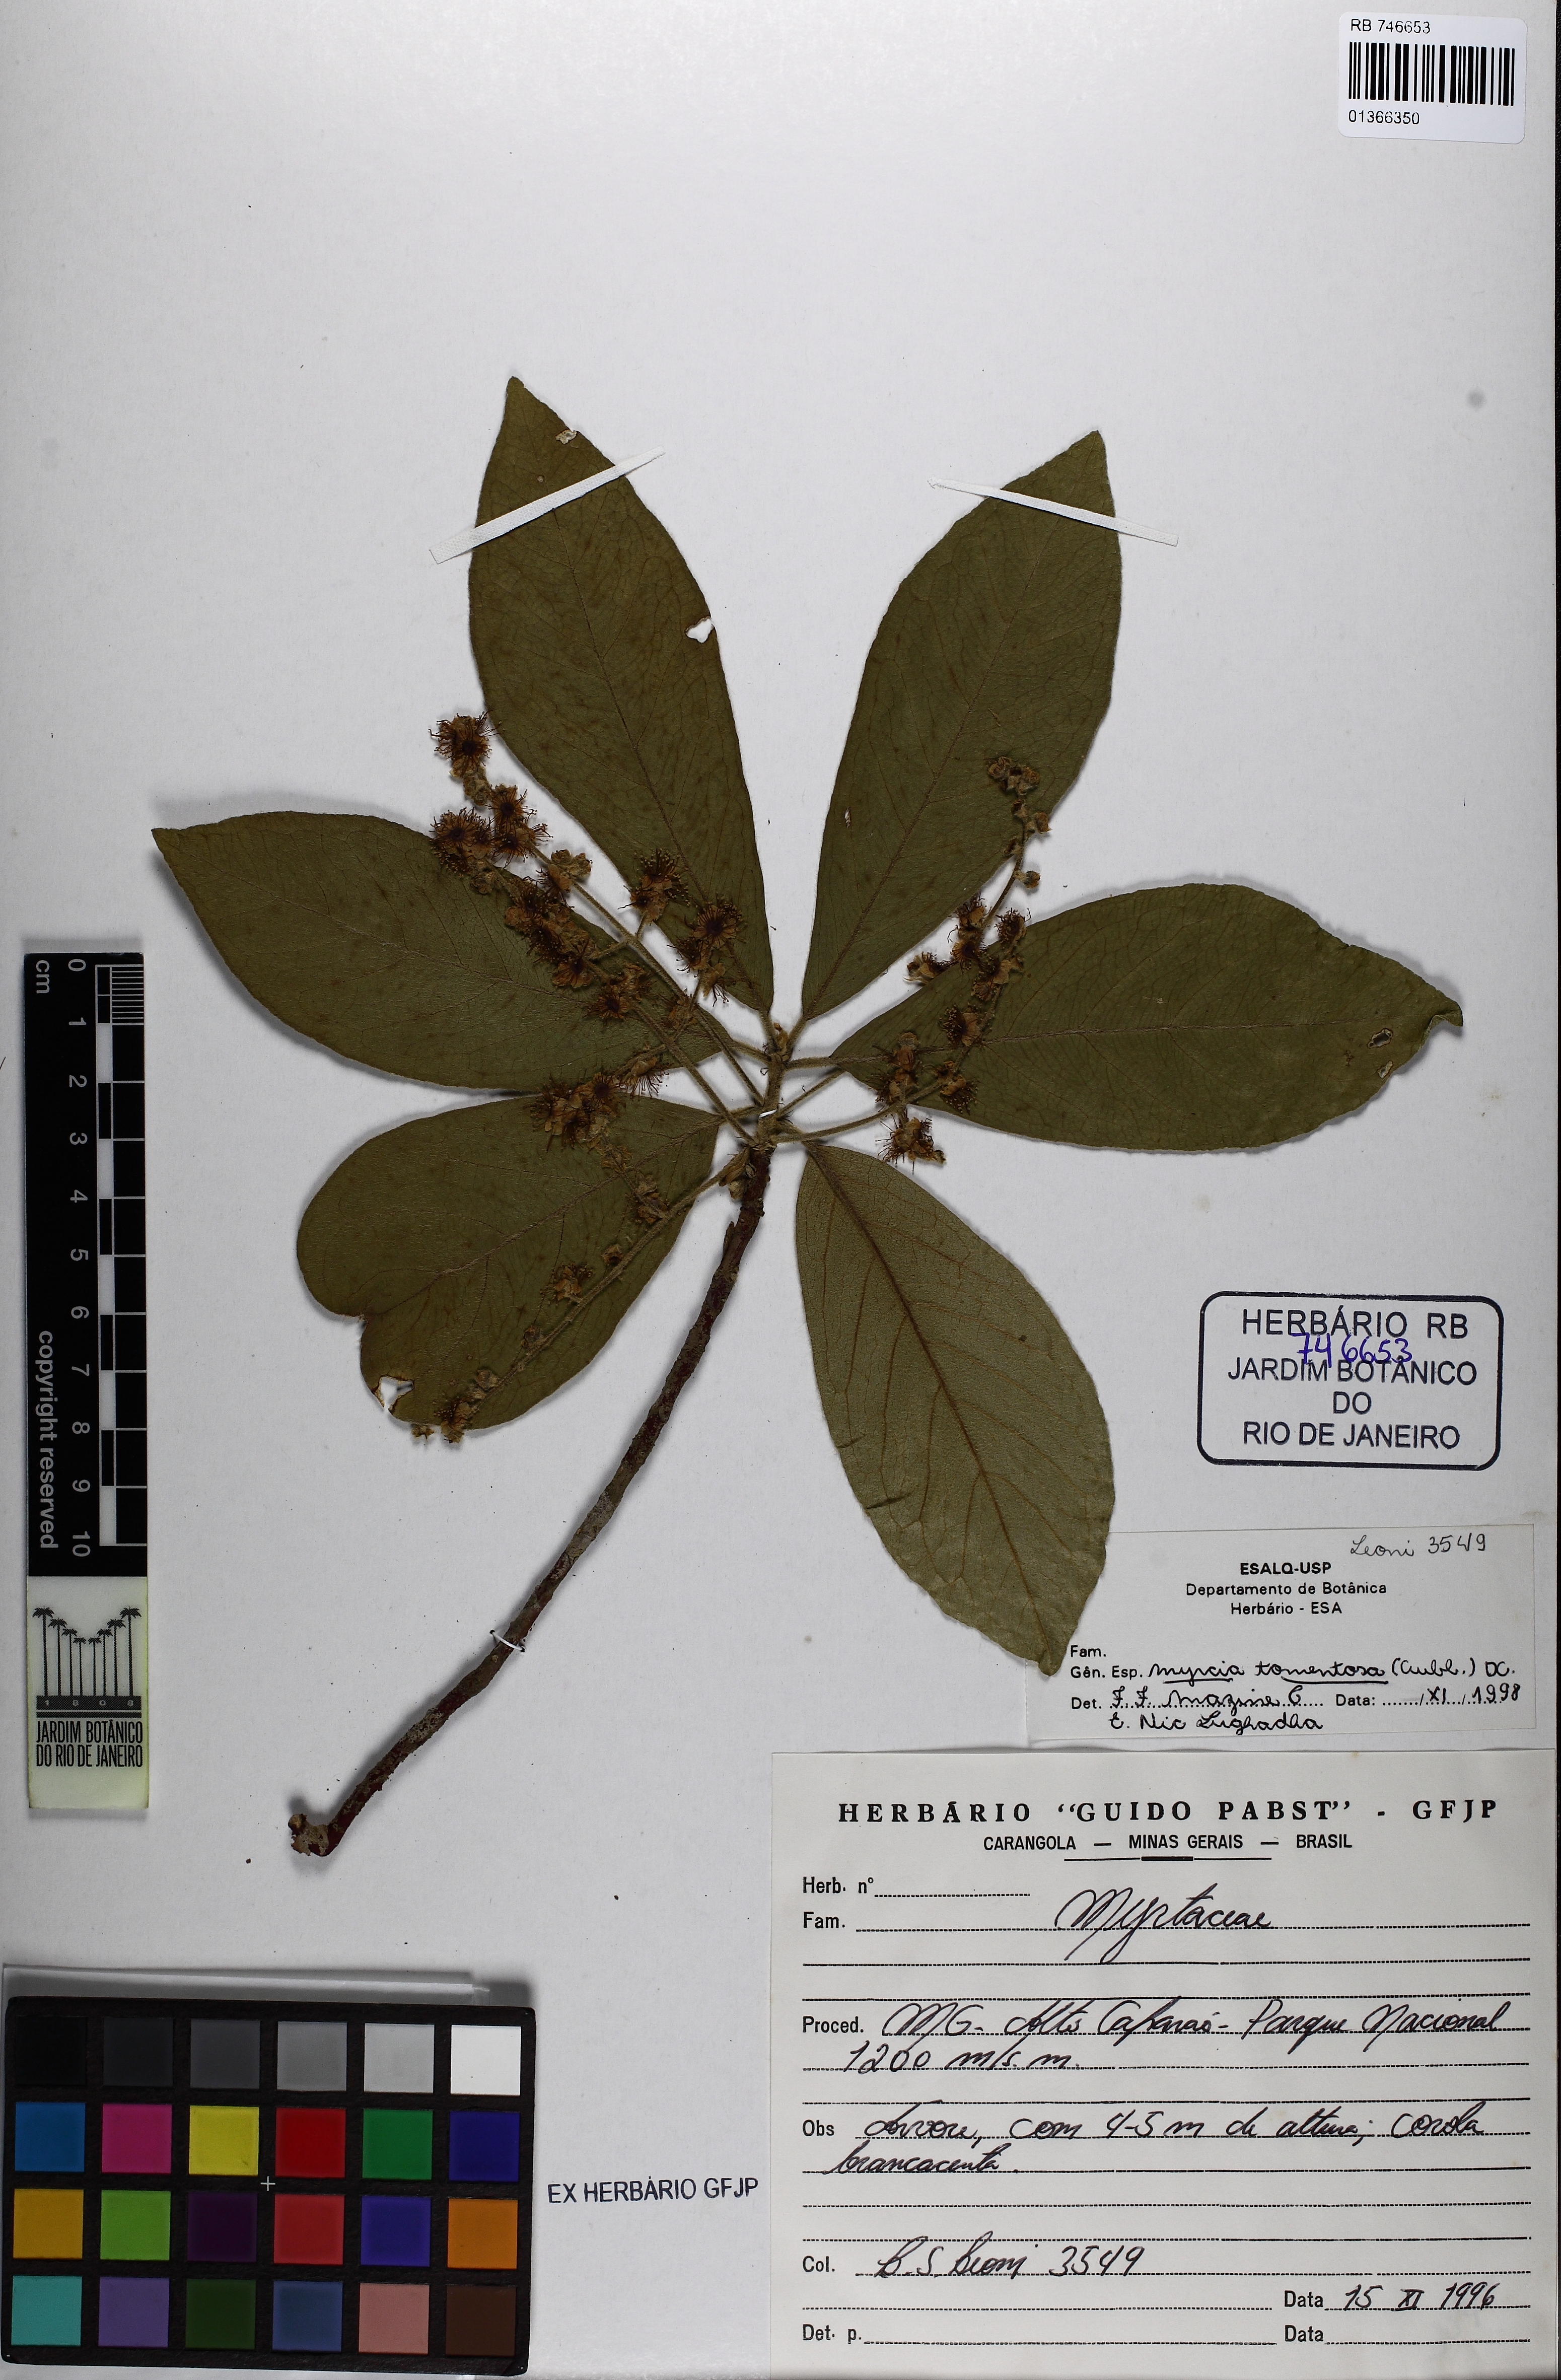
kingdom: Plantae
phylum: Tracheophyta
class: Magnoliopsida
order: Myrtales
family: Myrtaceae
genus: Myrcia
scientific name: Myrcia tomentosa
